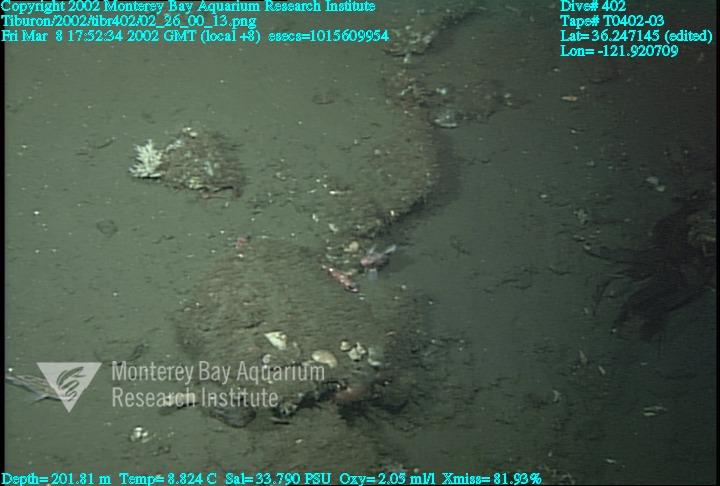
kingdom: Animalia
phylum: Porifera
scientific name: Porifera
